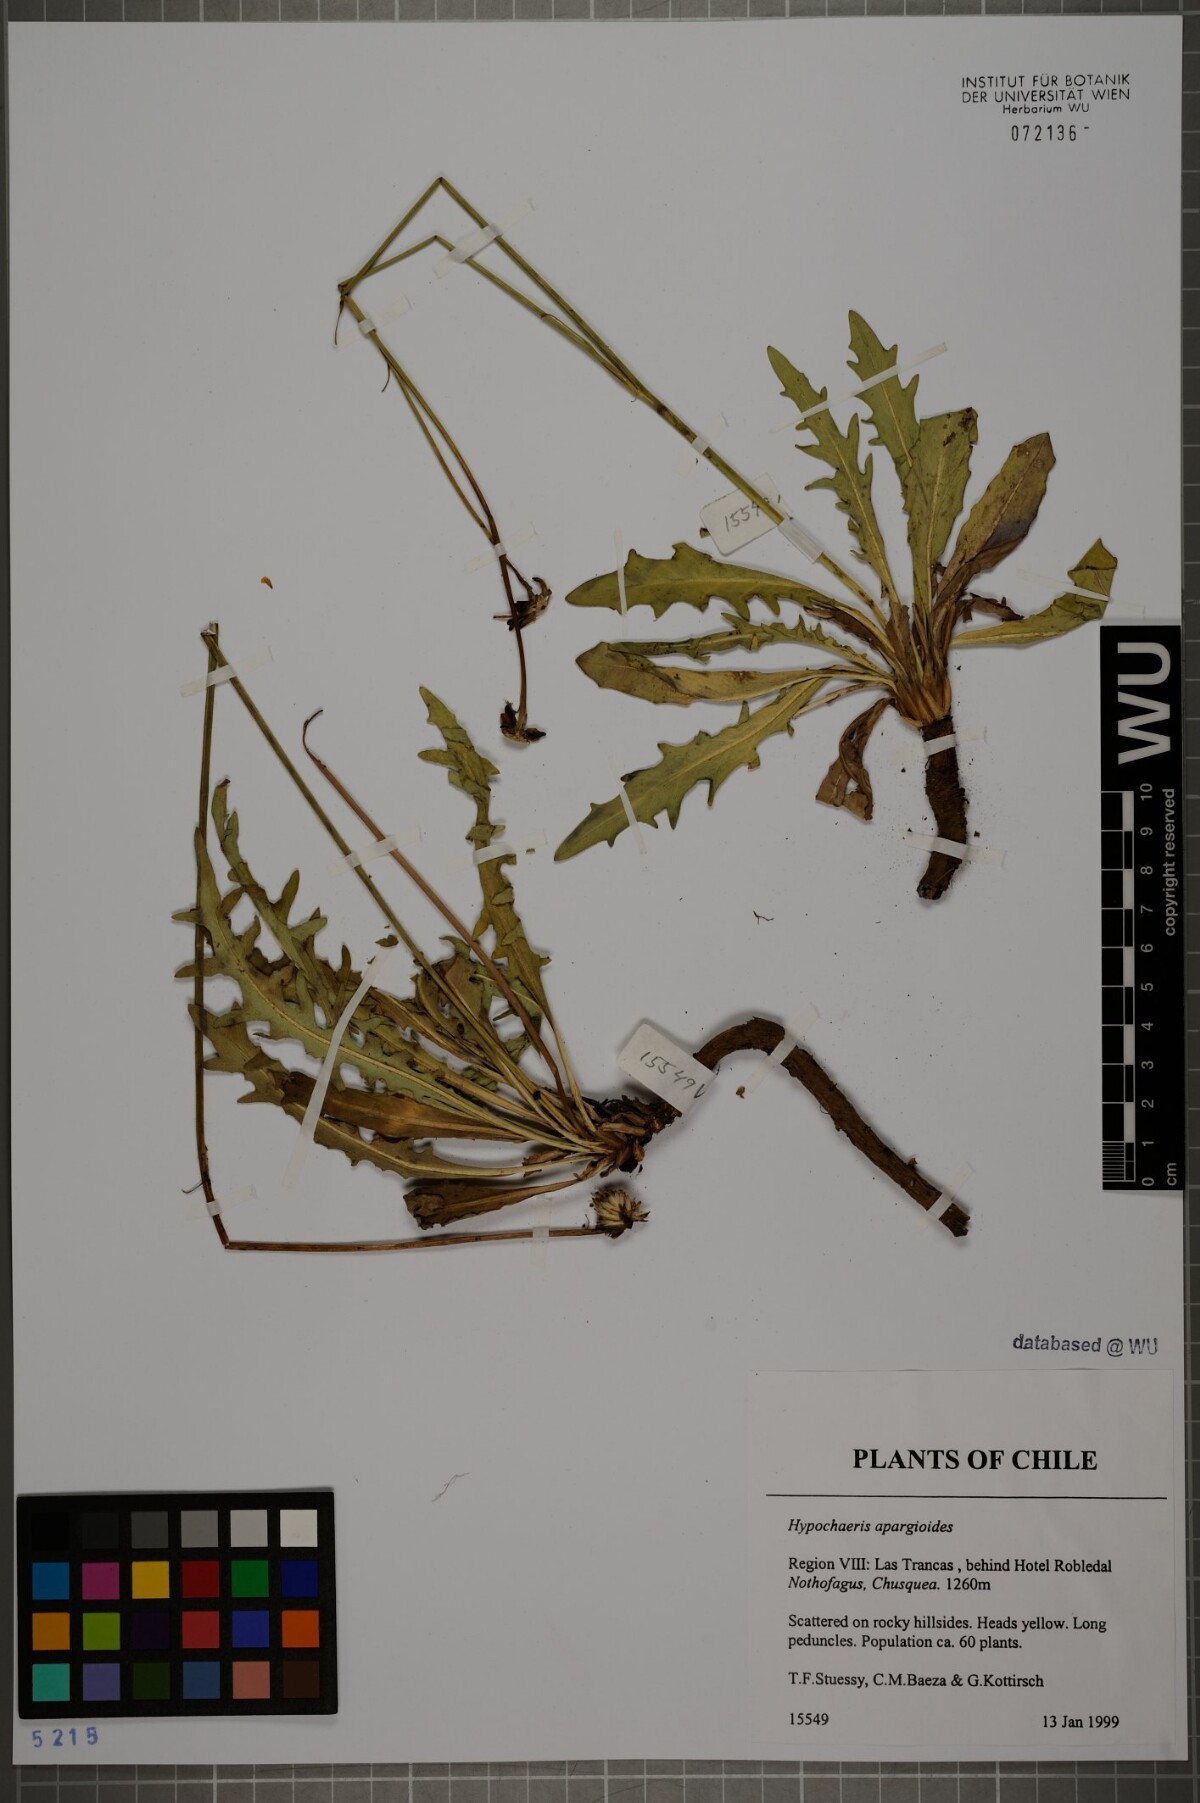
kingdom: Plantae
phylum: Tracheophyta
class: Magnoliopsida
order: Asterales
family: Asteraceae
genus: Hypochaeris
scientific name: Hypochaeris apargioides
